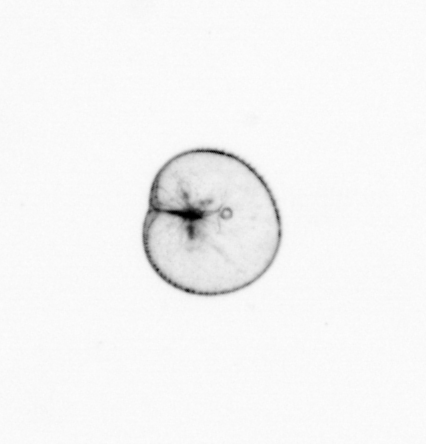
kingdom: Chromista
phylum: Myzozoa
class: Dinophyceae
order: Noctilucales
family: Noctilucaceae
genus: Noctiluca
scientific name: Noctiluca scintillans
